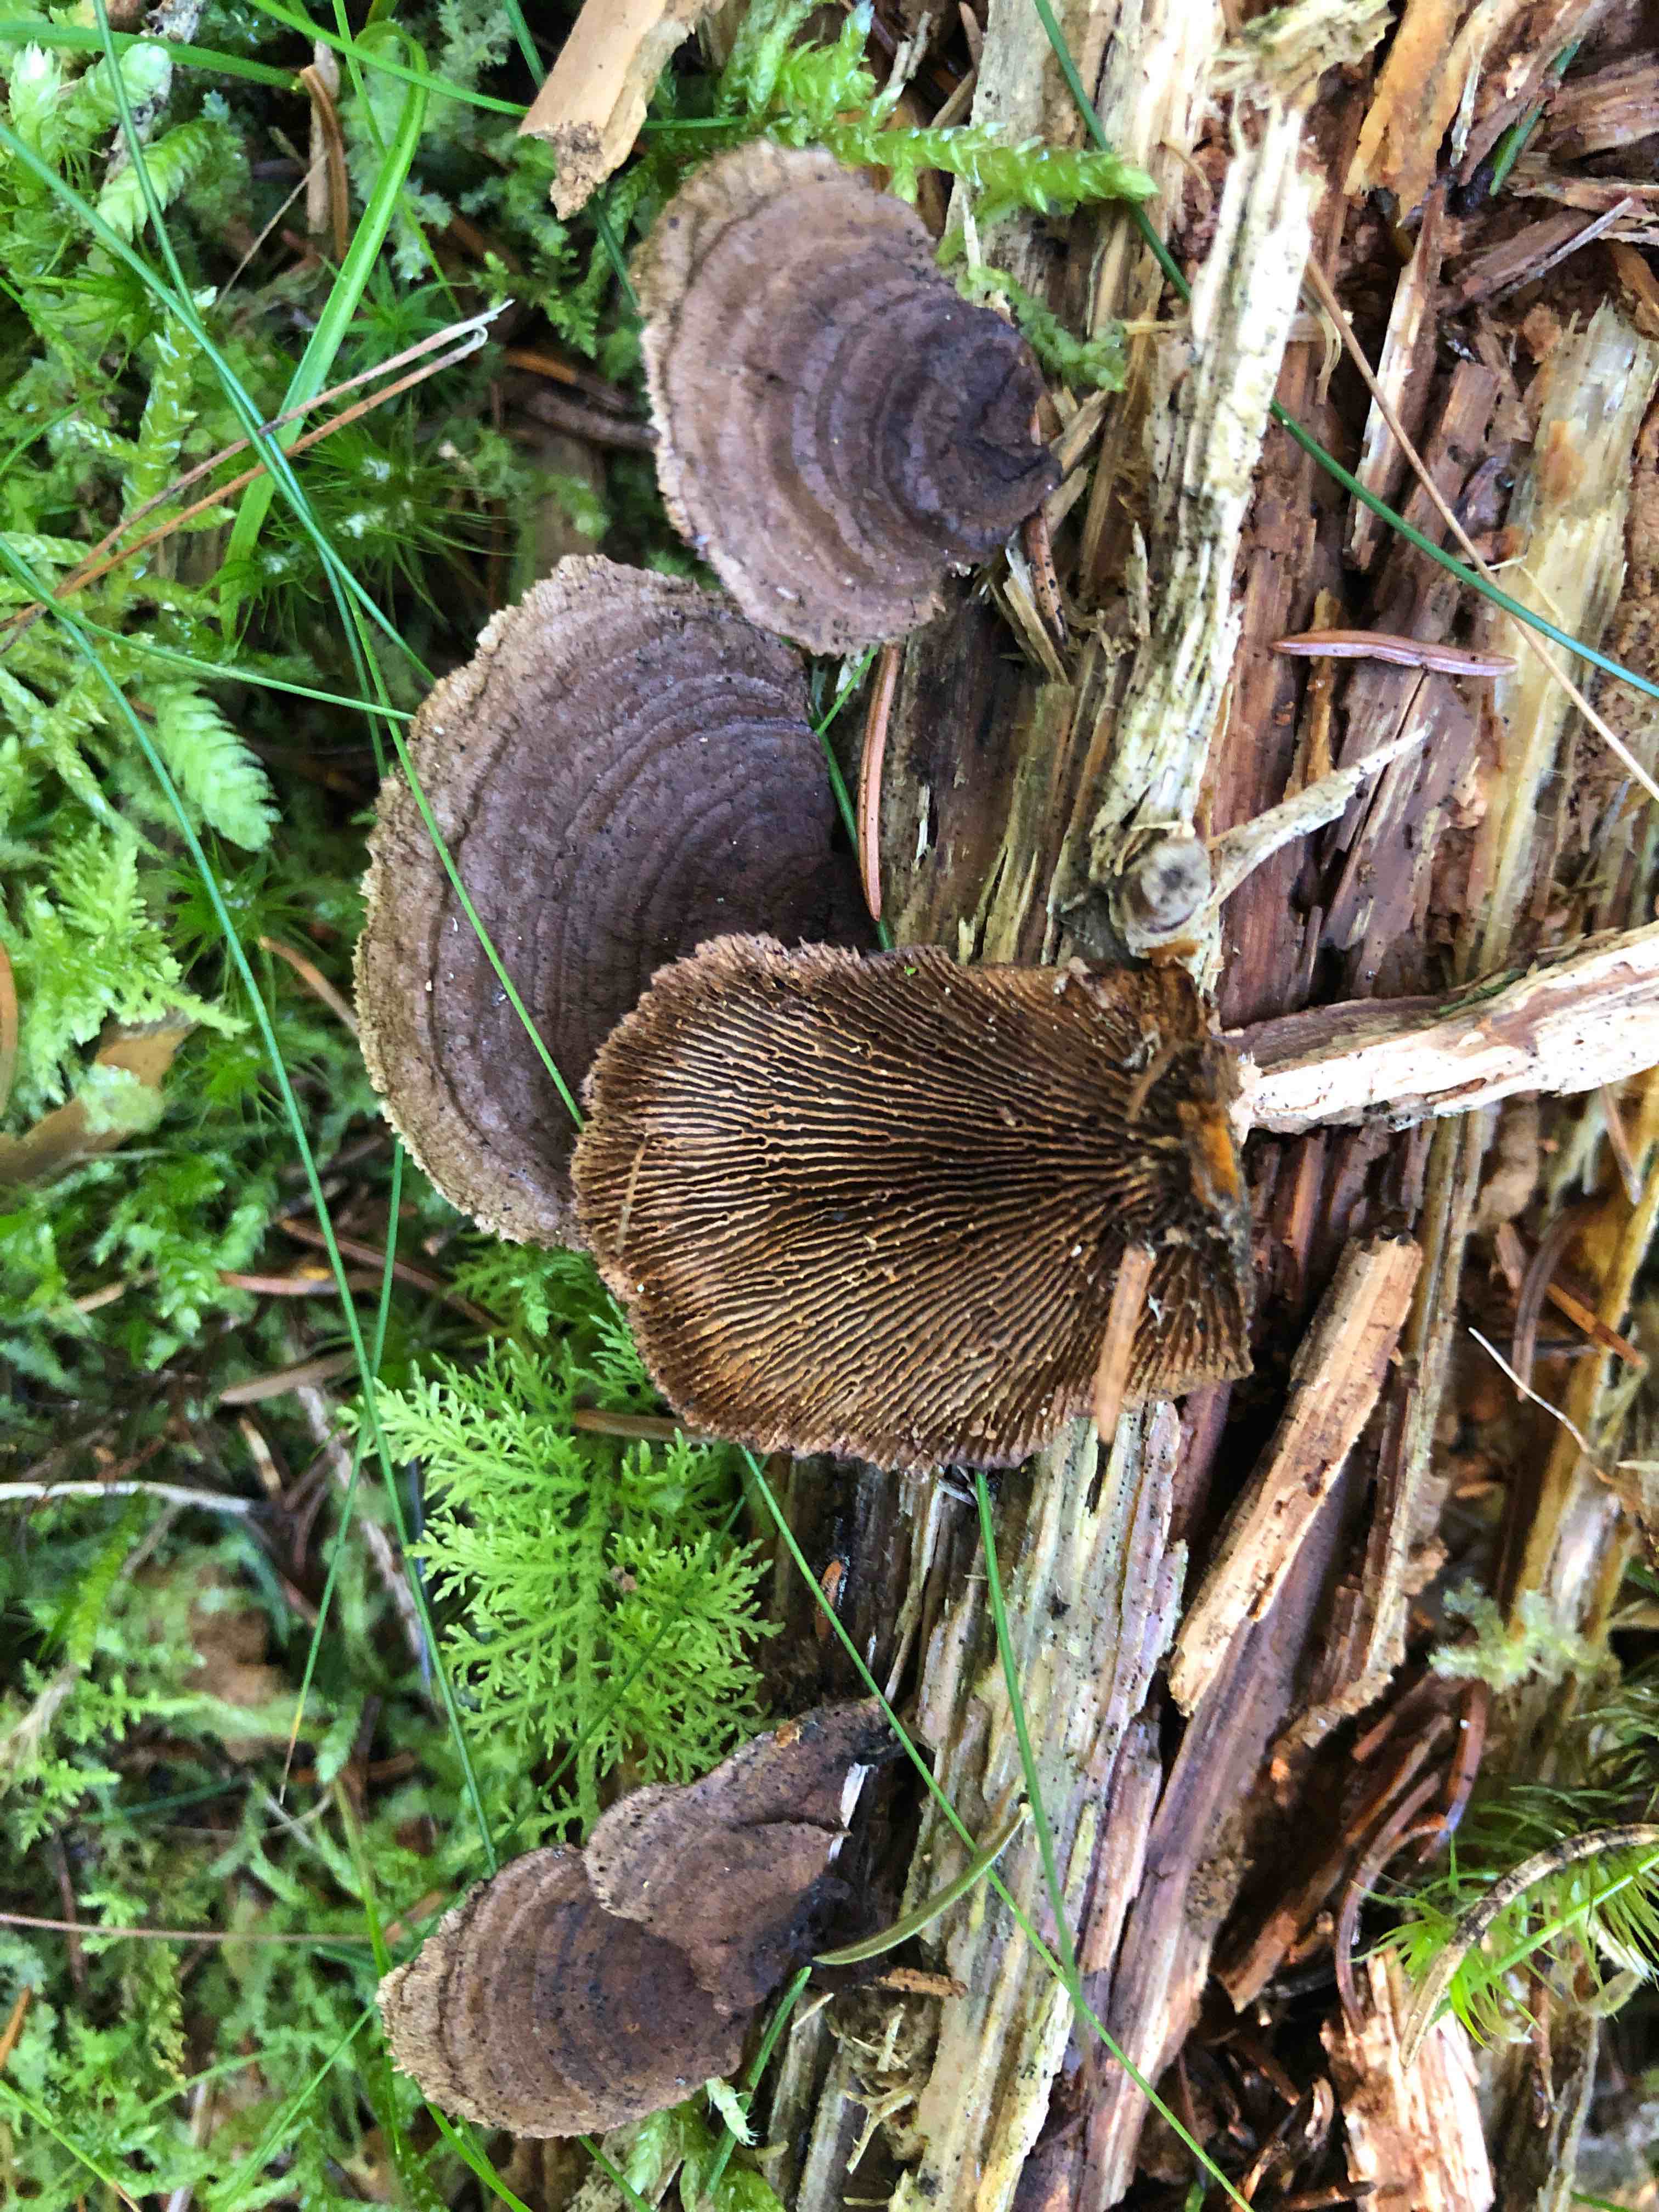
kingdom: Fungi
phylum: Basidiomycota
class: Agaricomycetes
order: Gloeophyllales
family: Gloeophyllaceae
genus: Gloeophyllum
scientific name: Gloeophyllum sepiarium
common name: fyrre-korkhat
